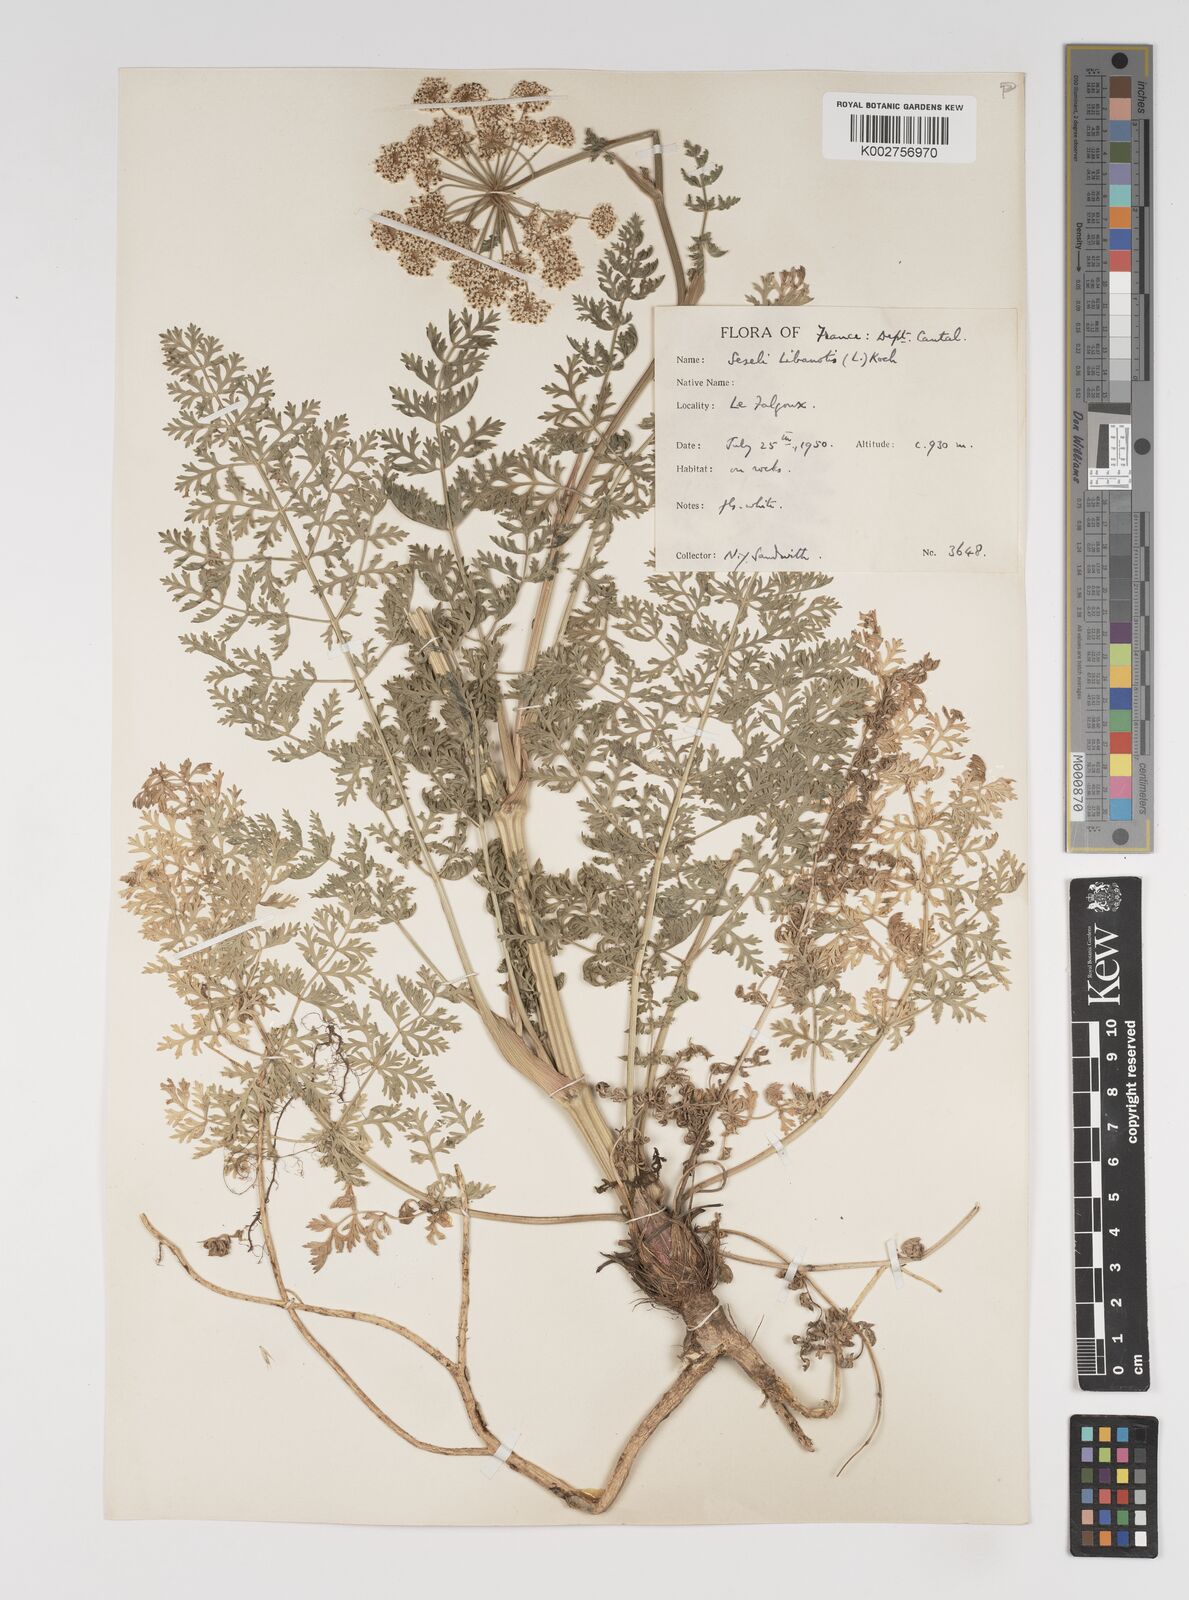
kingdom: Plantae
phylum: Tracheophyta
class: Magnoliopsida
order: Apiales
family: Apiaceae
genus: Seseli
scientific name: Seseli libanotis
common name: Mooncarrot
